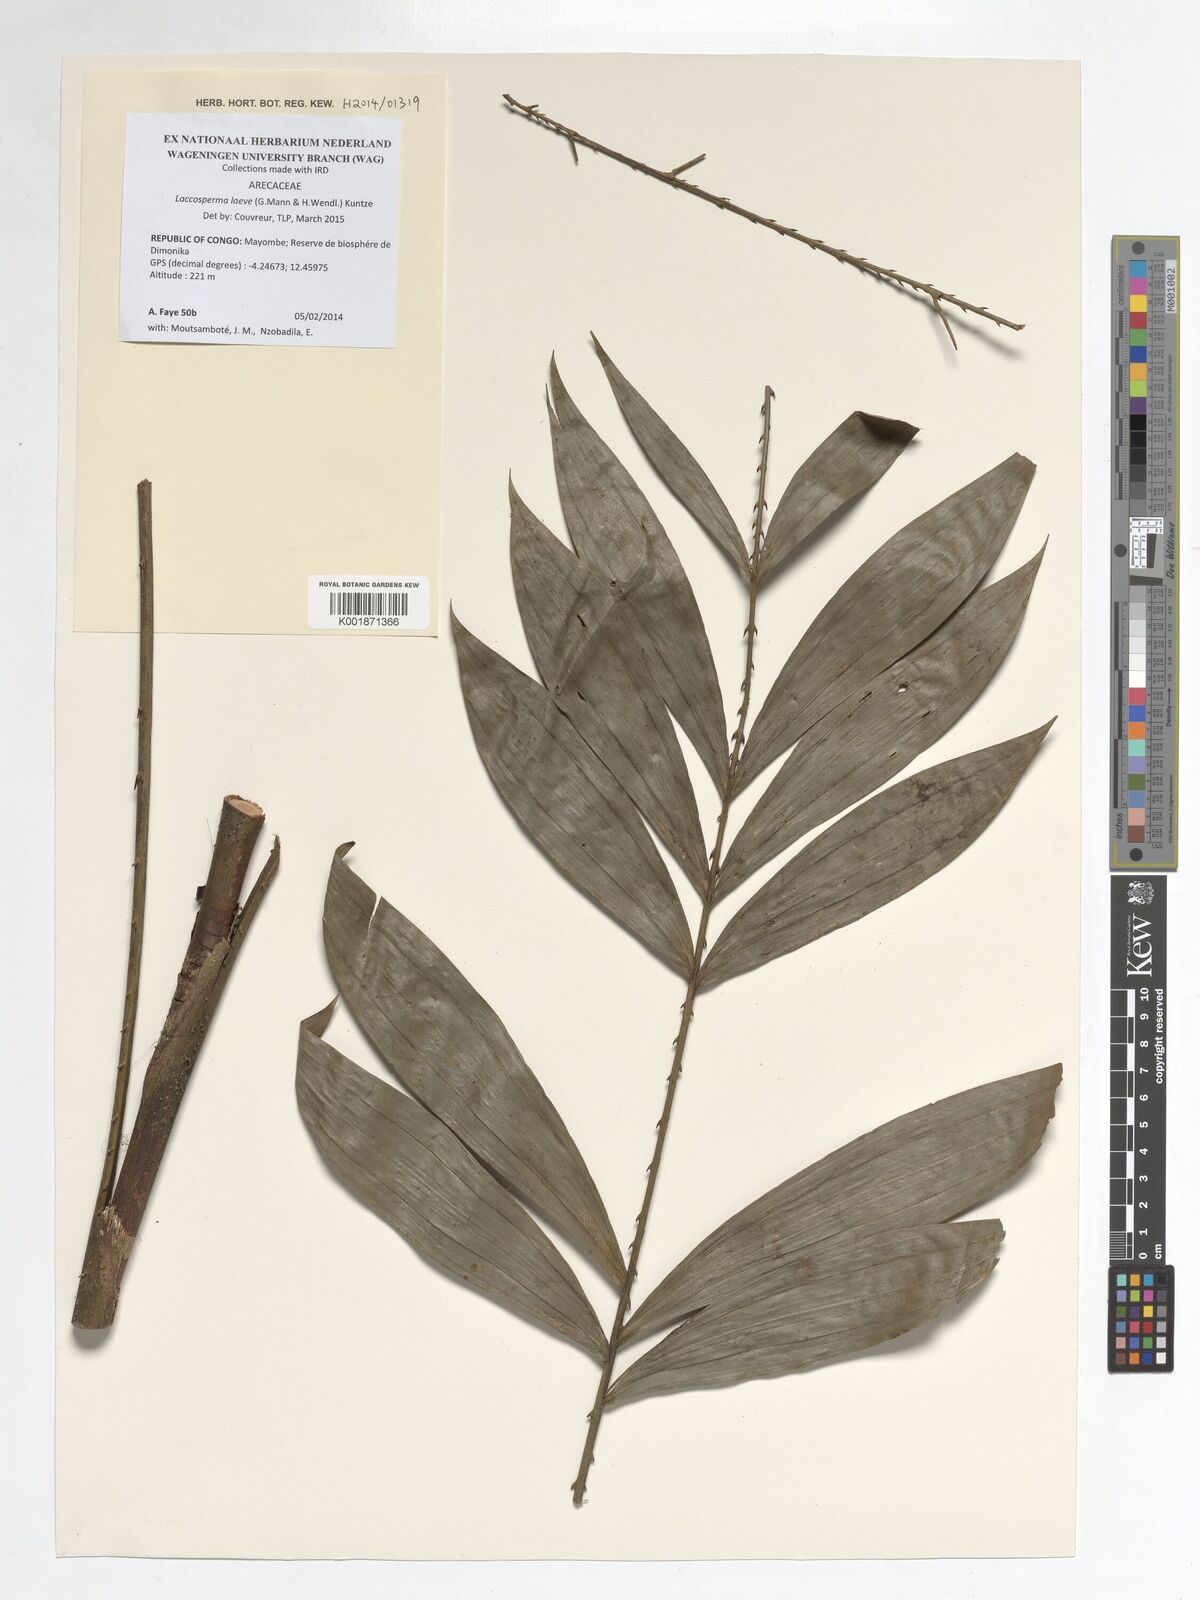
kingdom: Plantae
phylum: Tracheophyta
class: Liliopsida
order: Arecales
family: Arecaceae
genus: Laccosperma
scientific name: Laccosperma laeve
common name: Rattan
